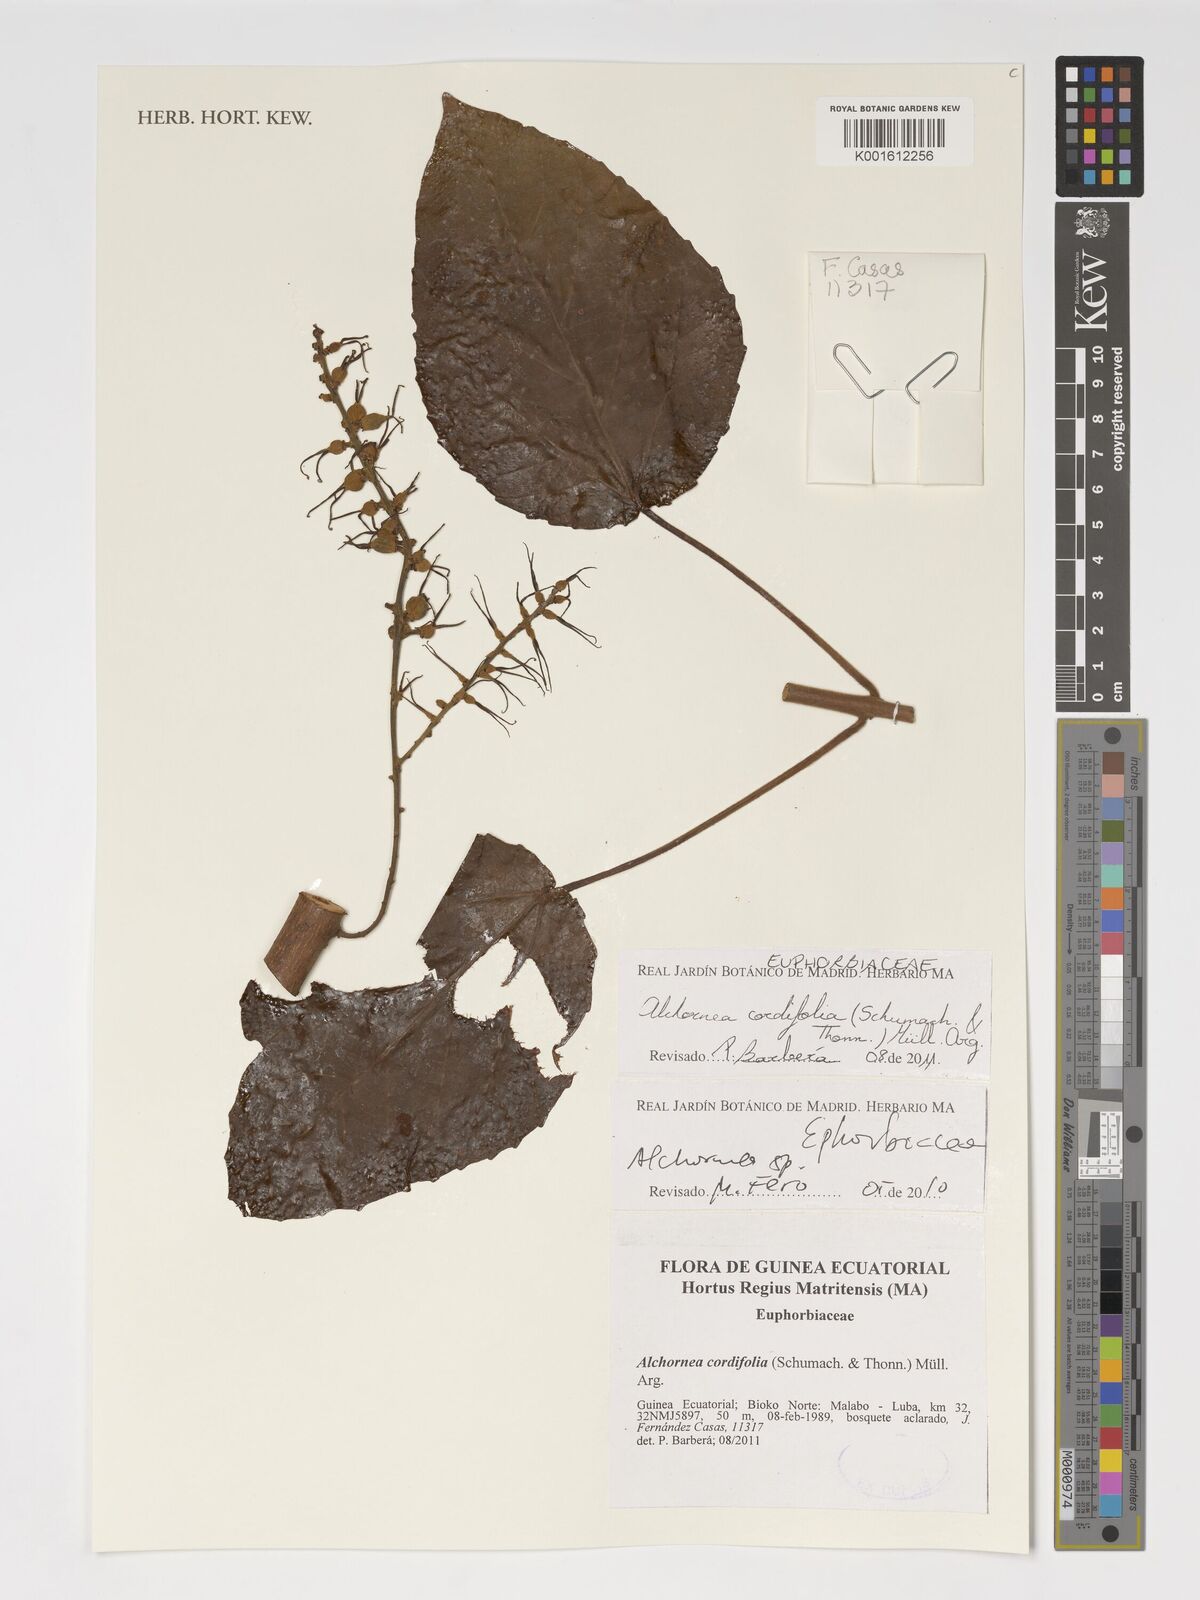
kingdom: Plantae
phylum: Tracheophyta
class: Magnoliopsida
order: Malpighiales
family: Euphorbiaceae
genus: Alchornea
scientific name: Alchornea cordifolia
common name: Christmasbush
